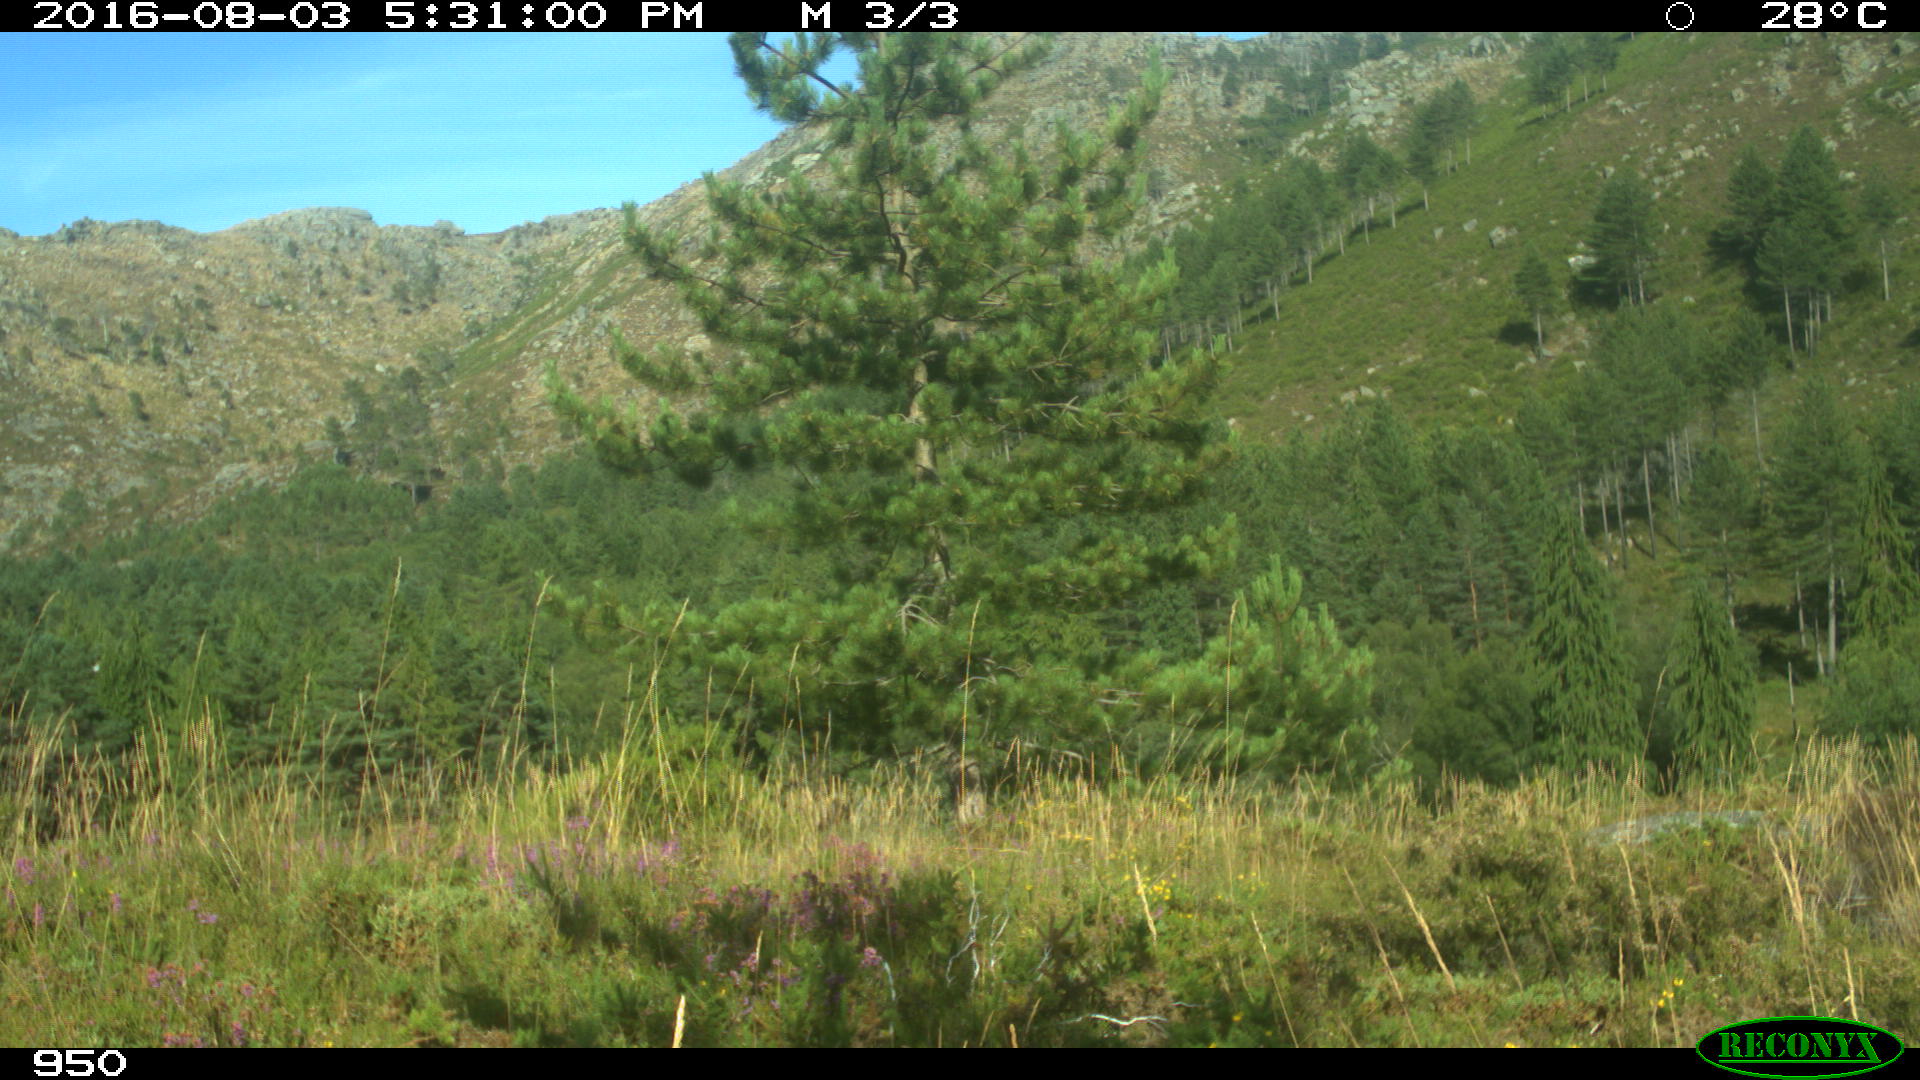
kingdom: Animalia
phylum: Chordata
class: Mammalia
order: Artiodactyla
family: Bovidae
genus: Bos
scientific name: Bos taurus
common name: Domesticated cattle
